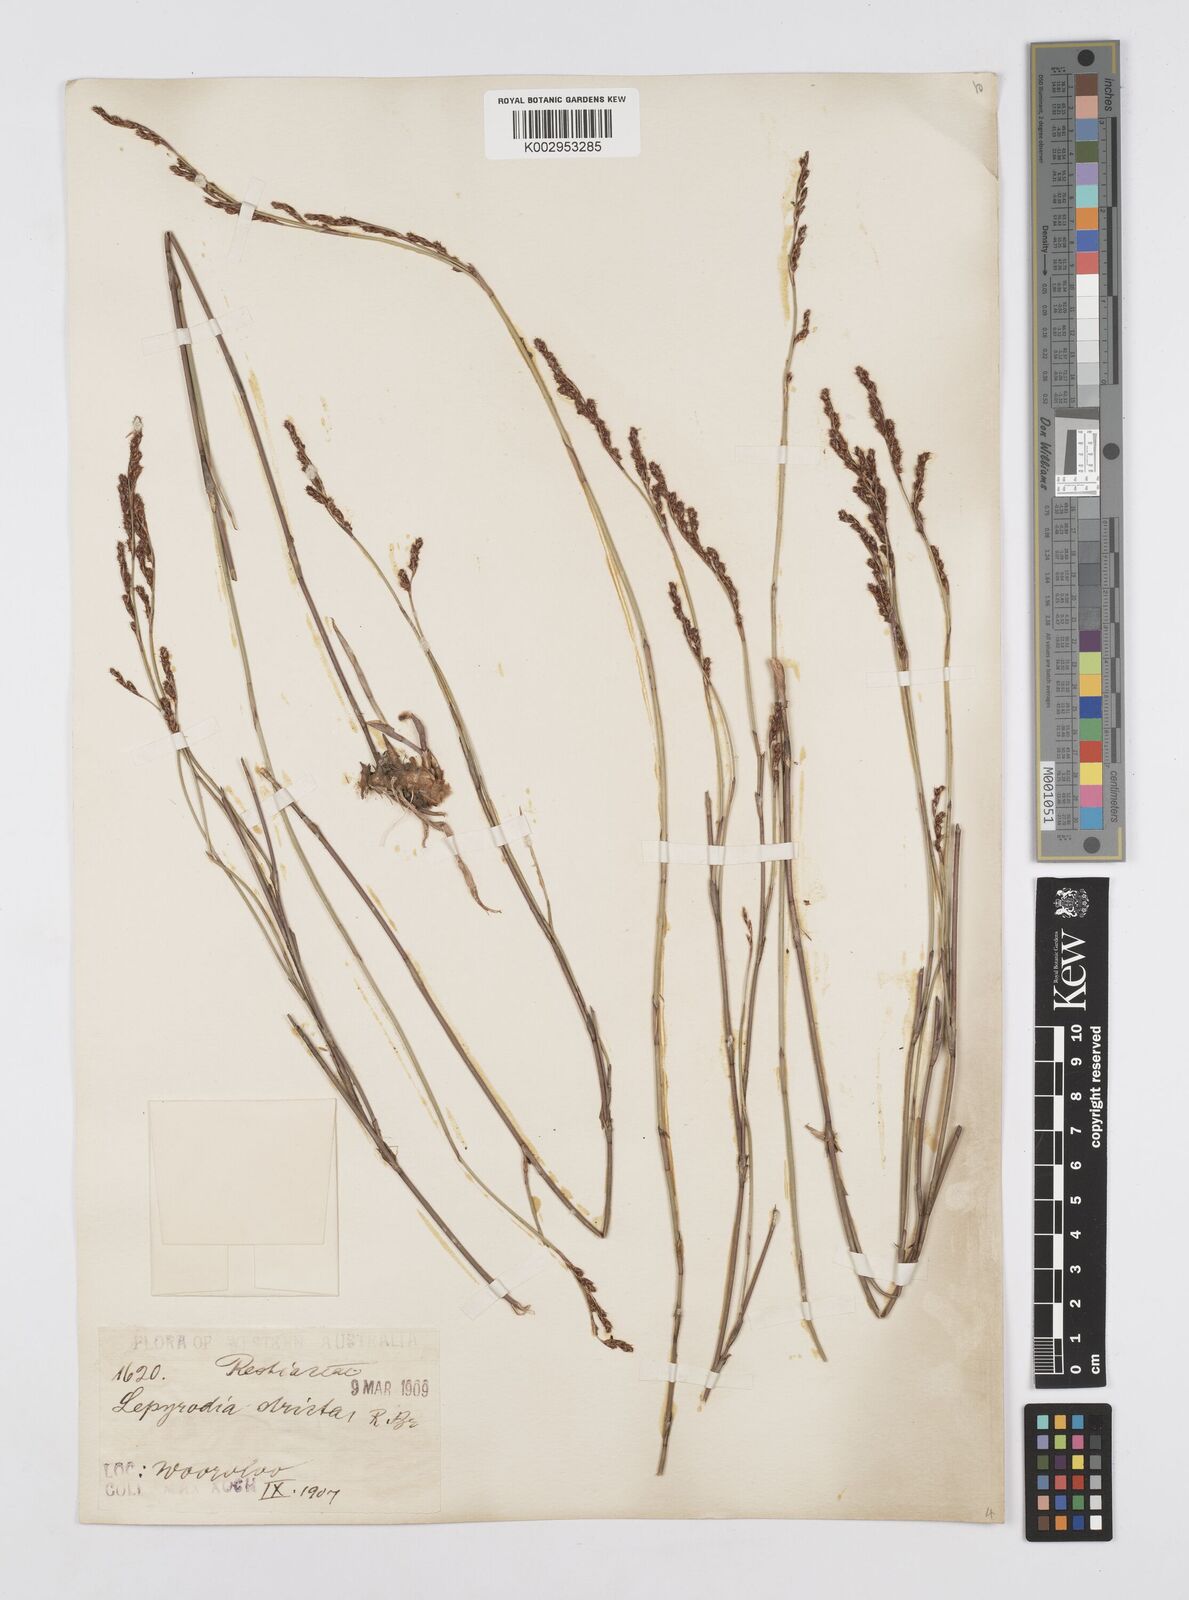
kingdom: Plantae
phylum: Tracheophyta
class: Liliopsida
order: Poales
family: Restionaceae
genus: Sporadanthus
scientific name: Sporadanthus strictus
